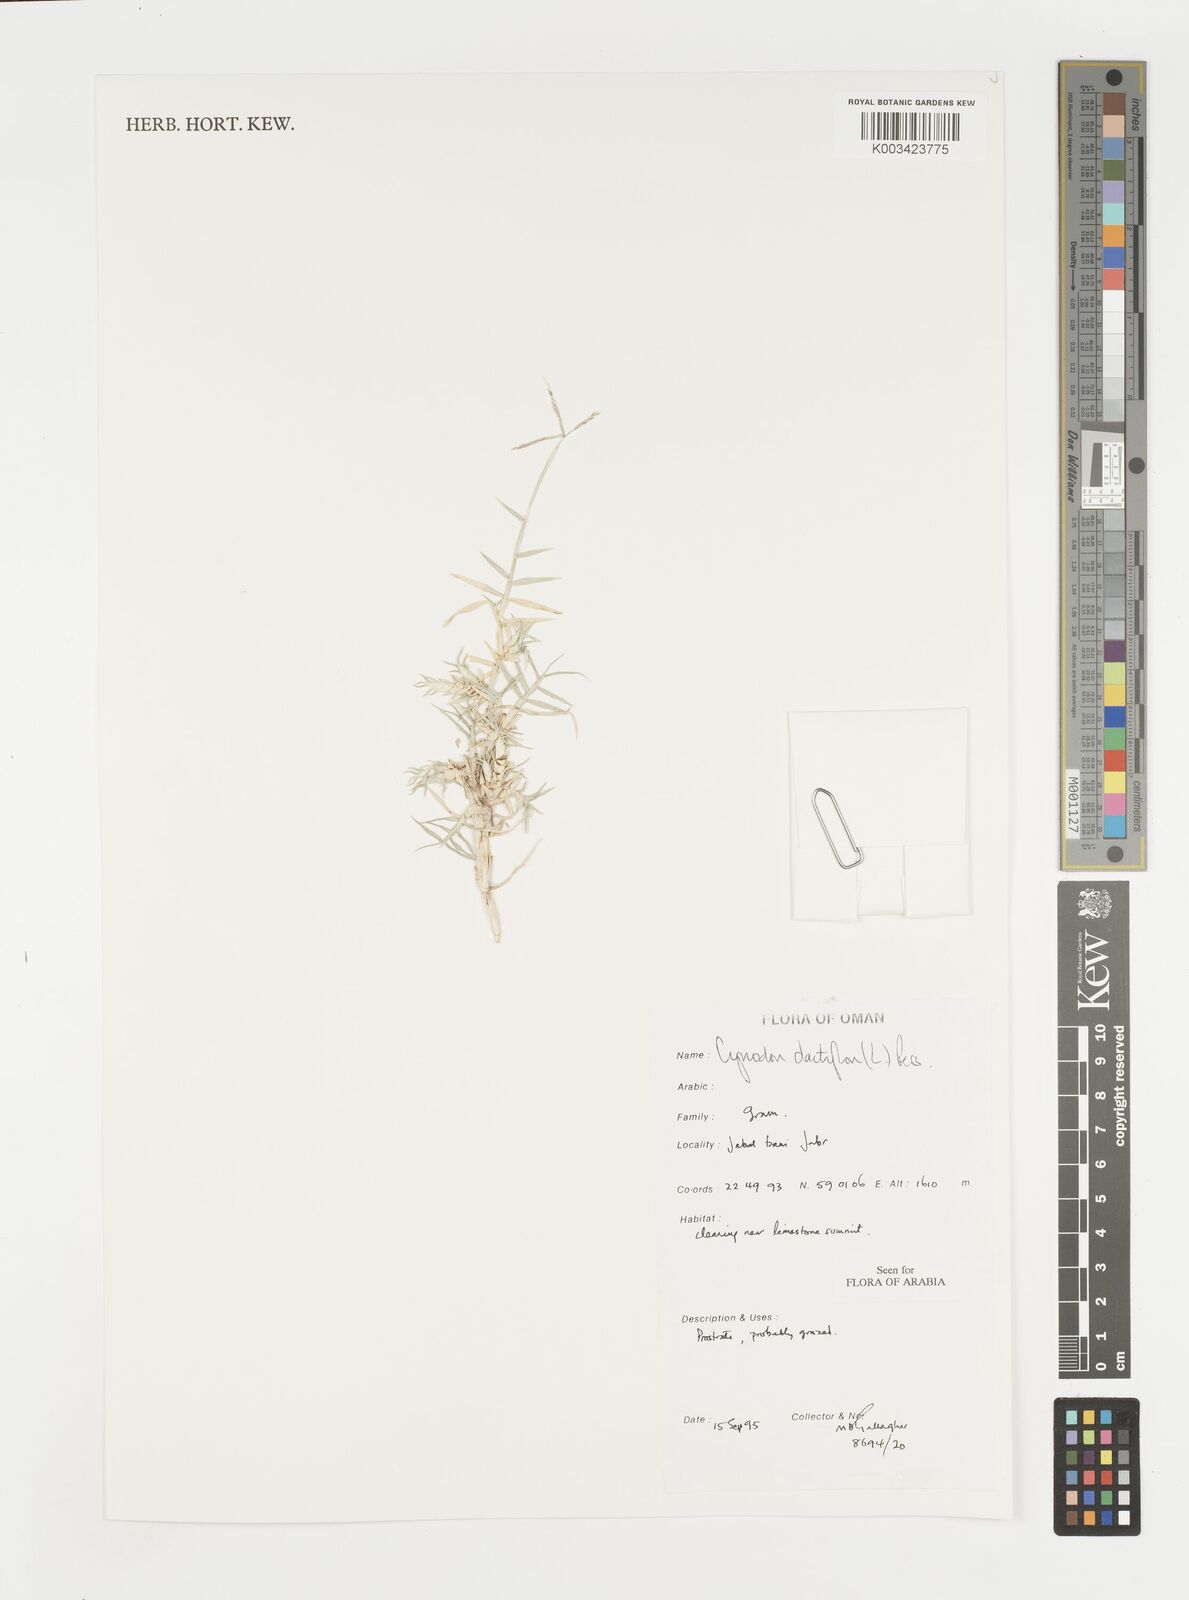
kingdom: Plantae
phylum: Tracheophyta
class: Liliopsida
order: Poales
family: Poaceae
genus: Cynodon
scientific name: Cynodon dactylon
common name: Bermuda grass
